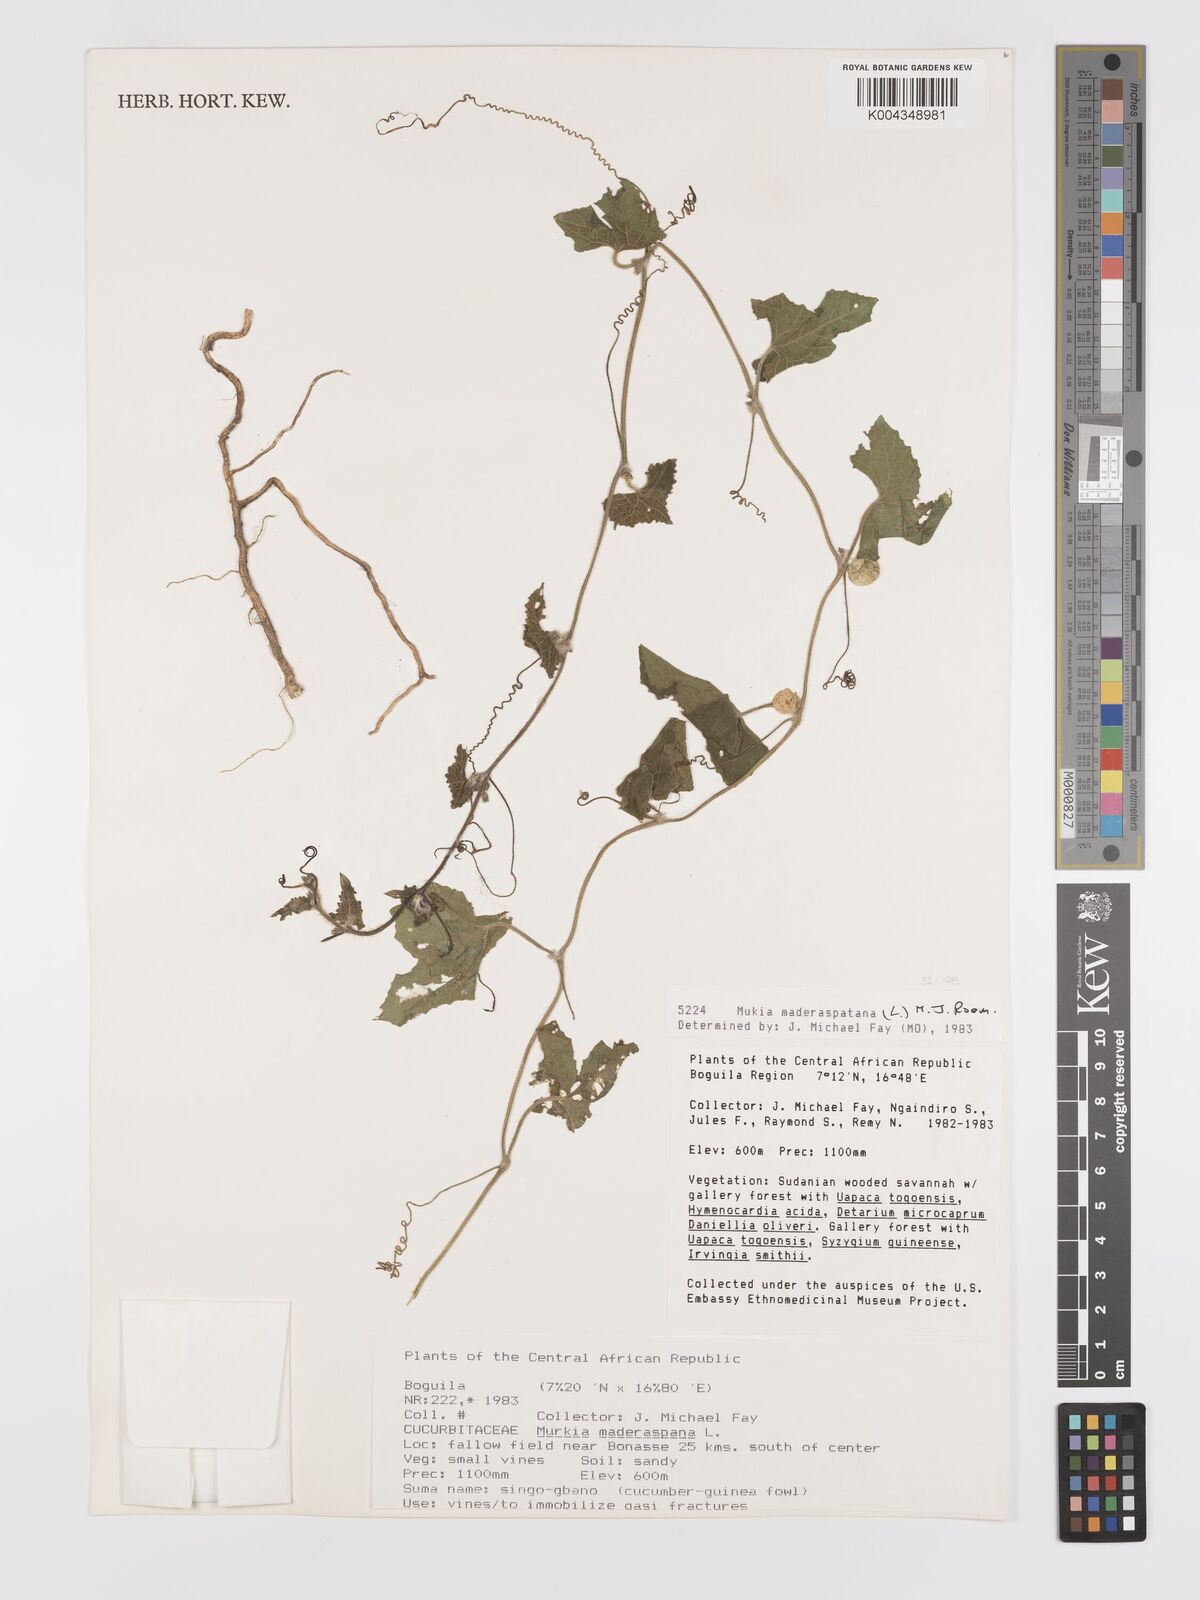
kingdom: Plantae
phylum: Tracheophyta
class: Magnoliopsida
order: Cucurbitales
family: Cucurbitaceae
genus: Cucumis
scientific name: Cucumis maderaspatanus
